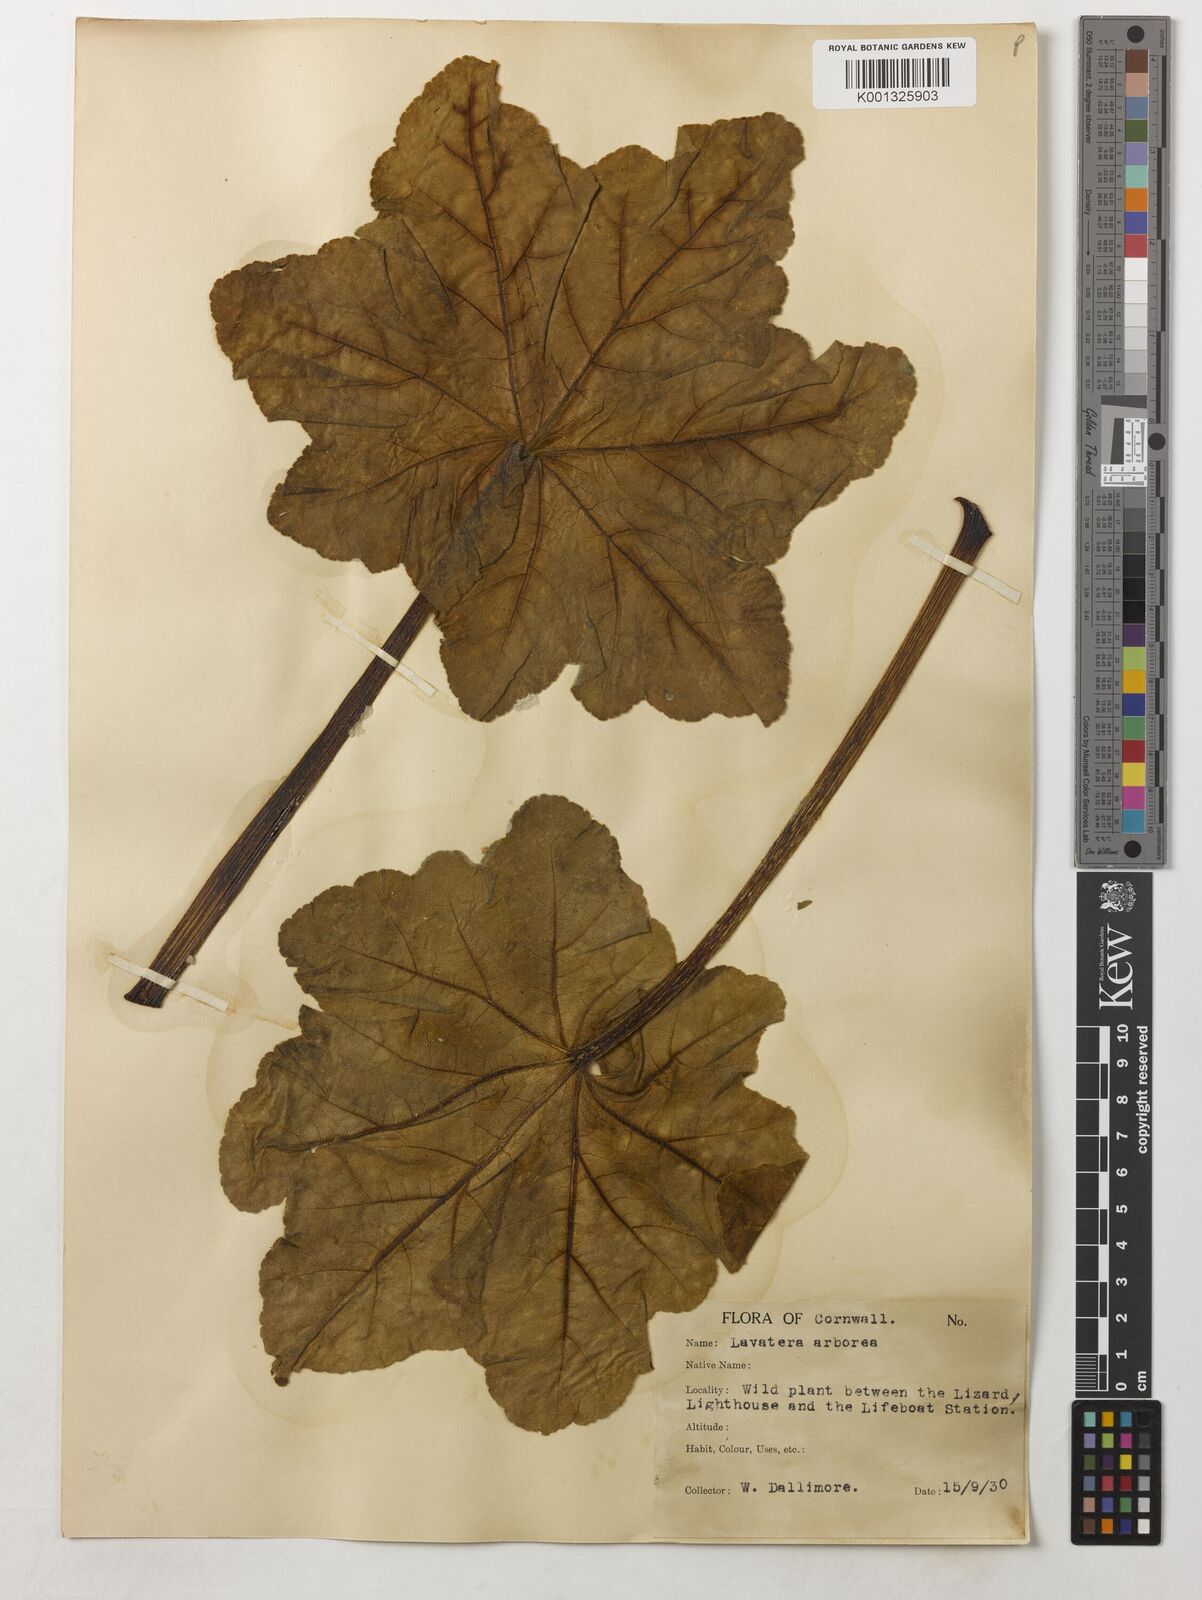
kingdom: Plantae
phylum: Tracheophyta
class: Magnoliopsida
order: Malvales
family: Malvaceae
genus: Malva
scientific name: Malva arborea
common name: Tree mallow
